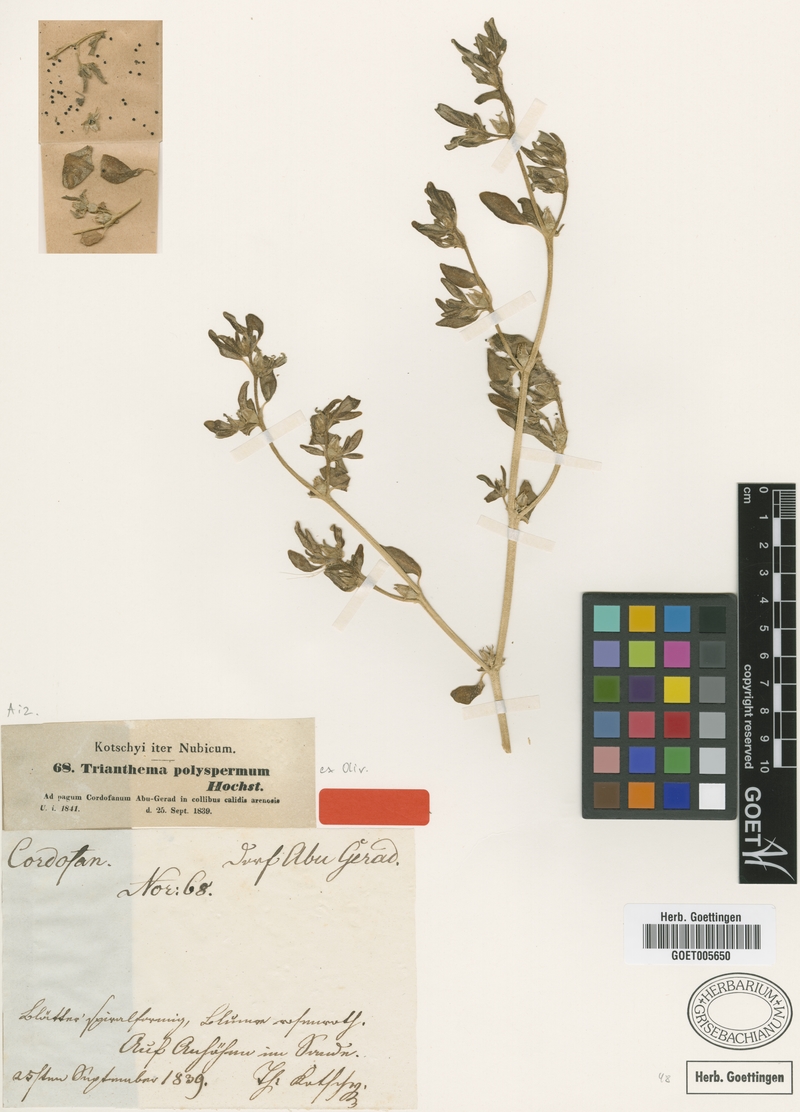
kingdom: Plantae
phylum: Tracheophyta
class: Magnoliopsida
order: Caryophyllales
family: Aizoaceae
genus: Sesuvium
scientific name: Sesuvium hydaspicum
